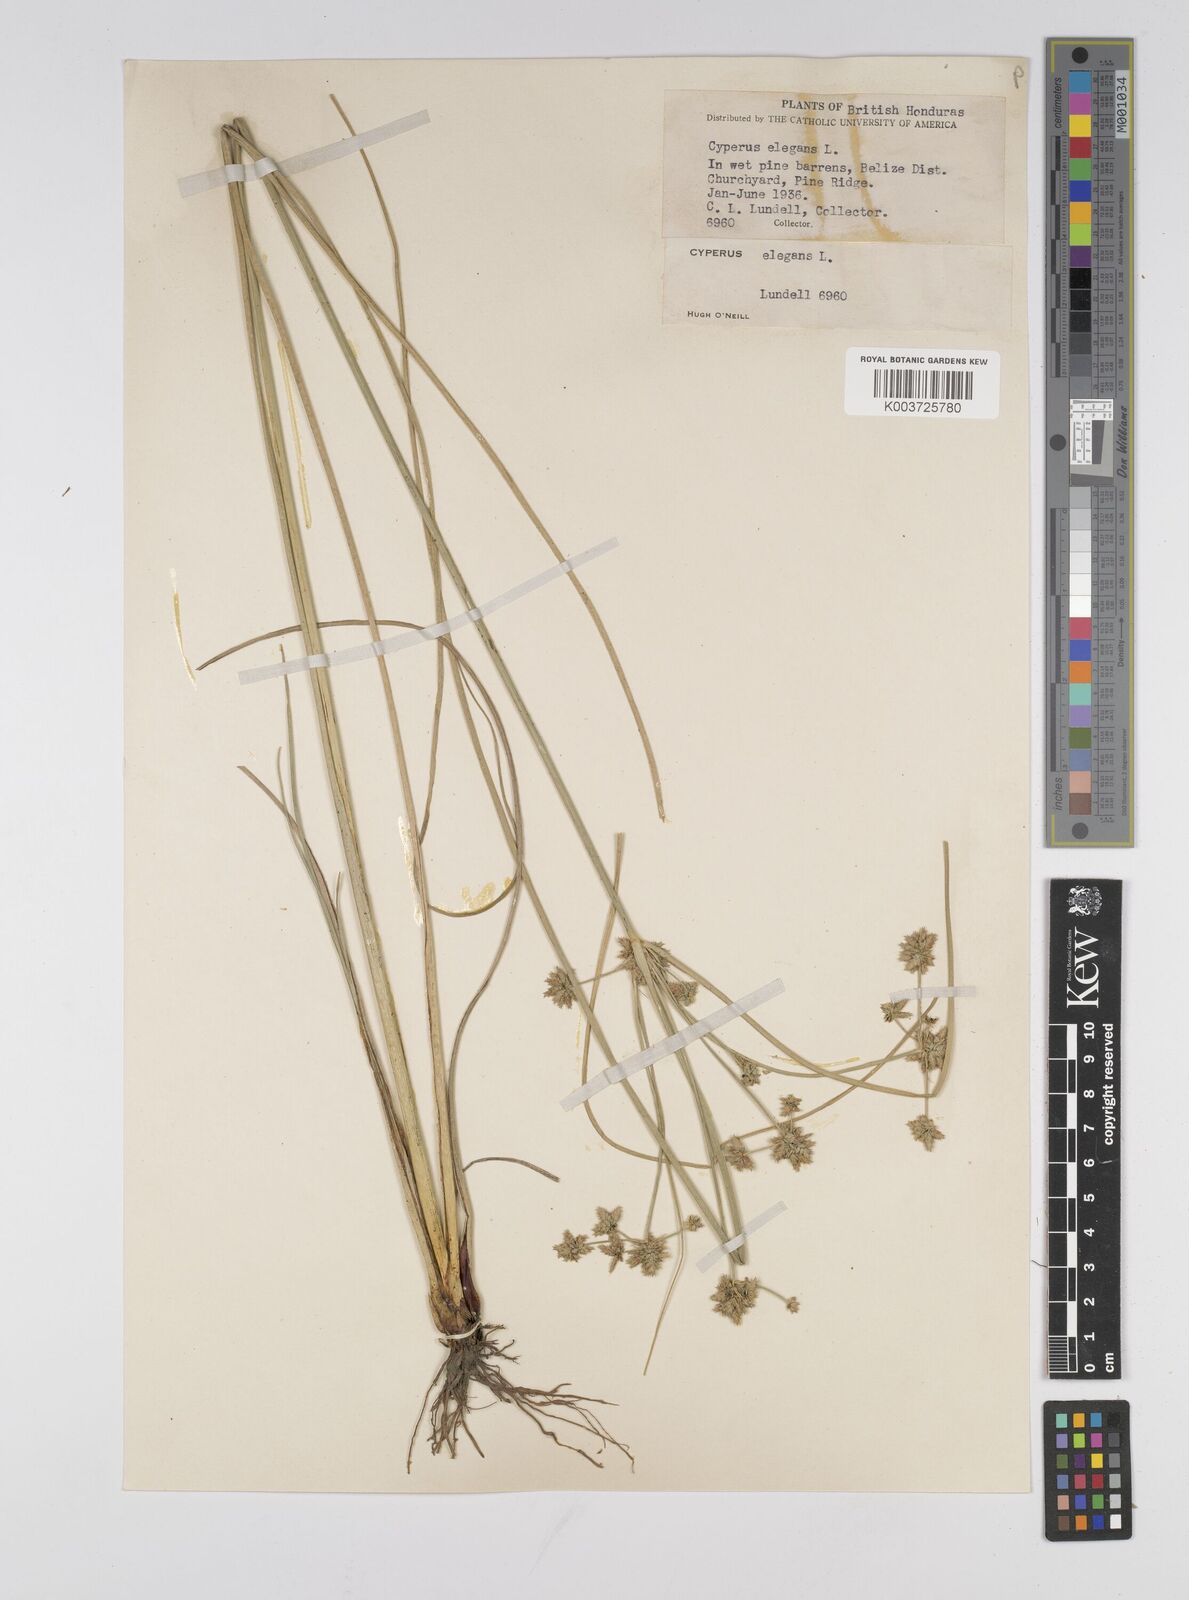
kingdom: Plantae
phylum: Tracheophyta
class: Liliopsida
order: Poales
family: Cyperaceae
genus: Cyperus
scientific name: Cyperus elegans
